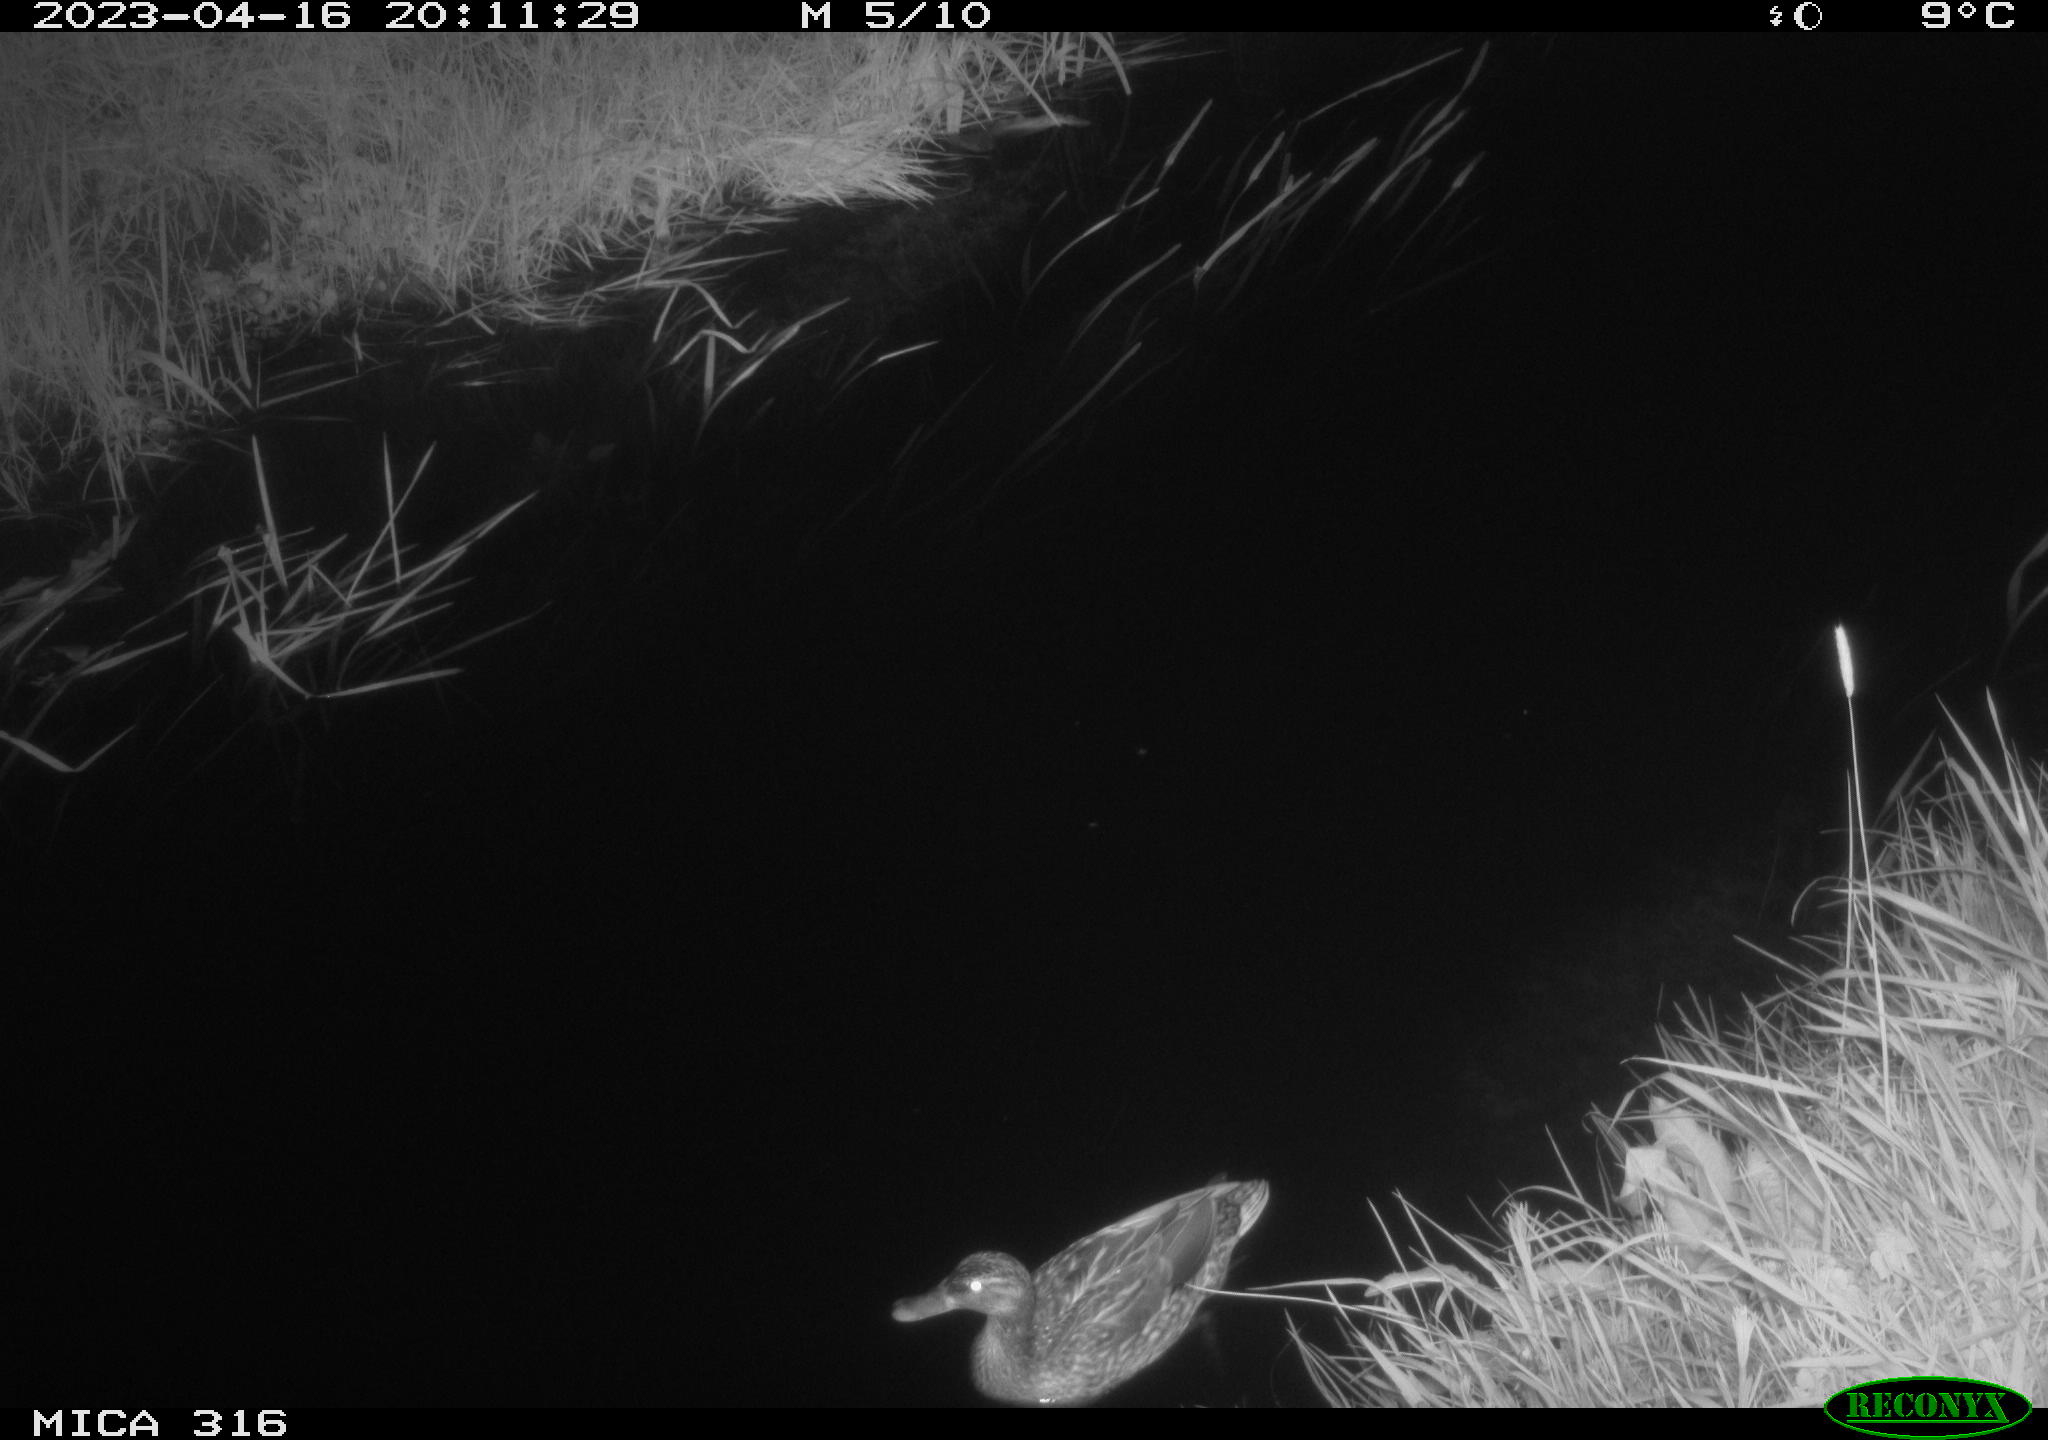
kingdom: Animalia
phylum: Chordata
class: Aves
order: Anseriformes
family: Anatidae
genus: Anas
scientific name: Anas
